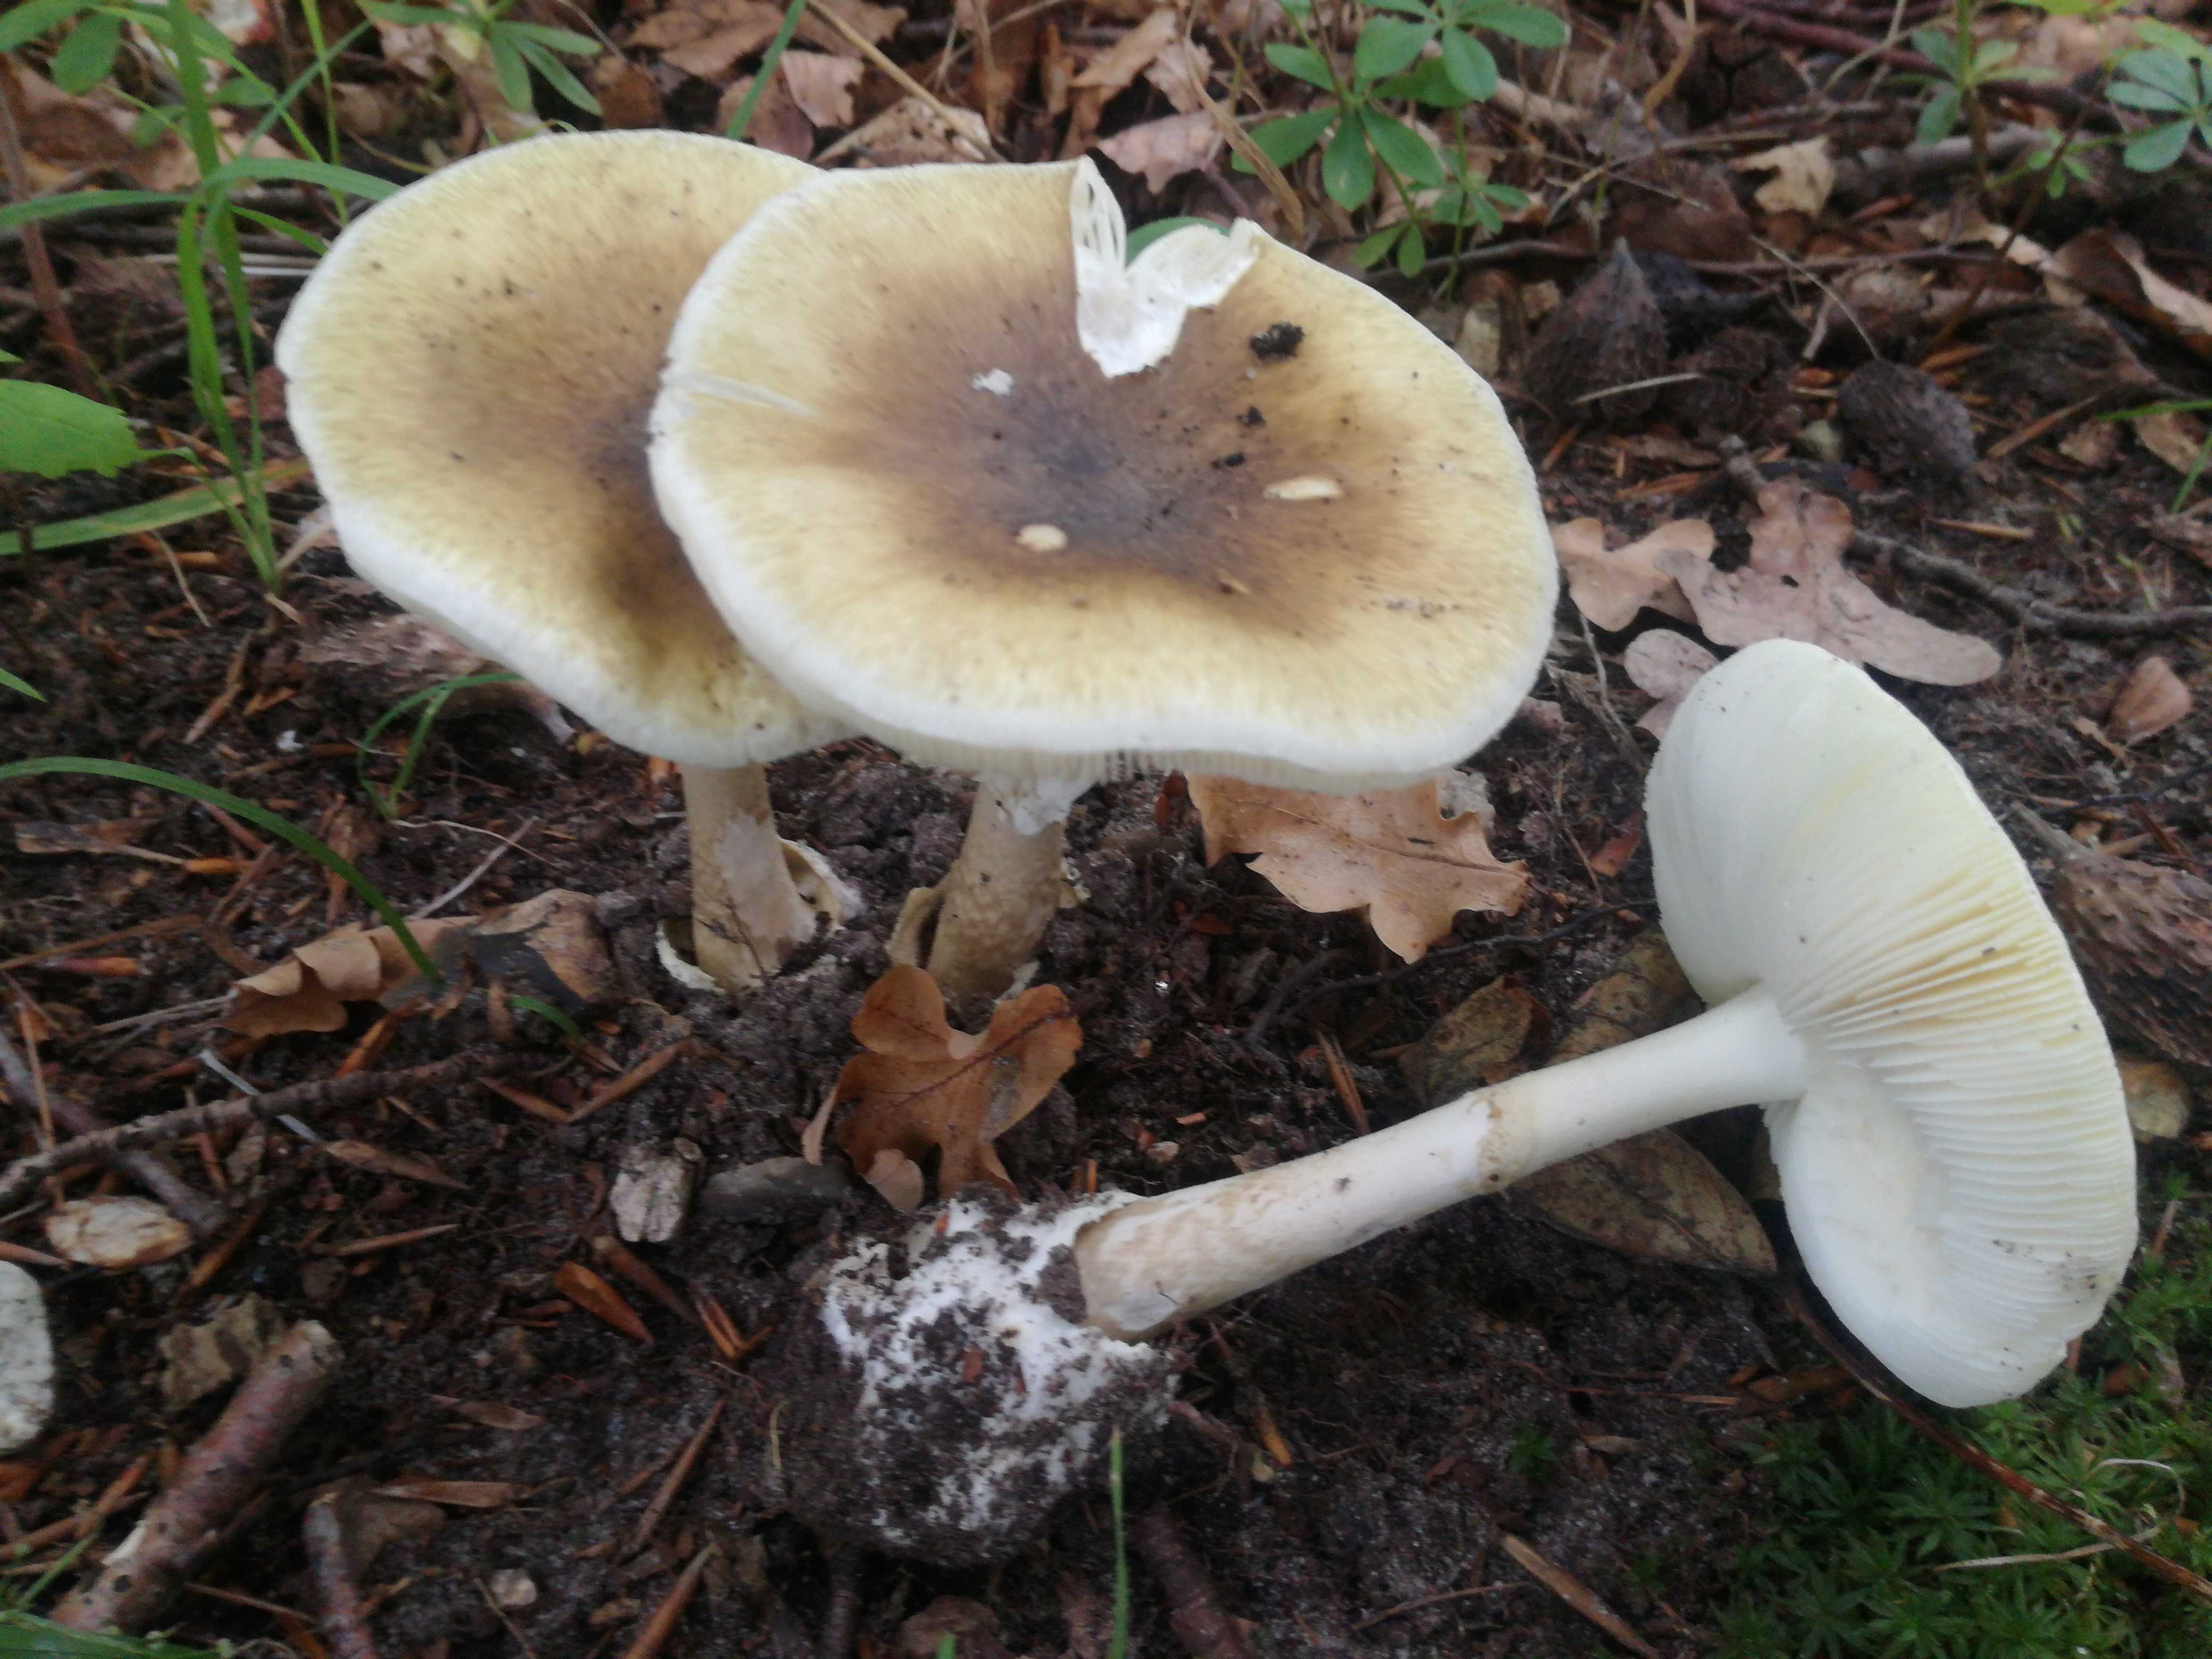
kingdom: Fungi
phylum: Basidiomycota
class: Agaricomycetes
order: Agaricales
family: Amanitaceae
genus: Amanita
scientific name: Amanita phalloides
